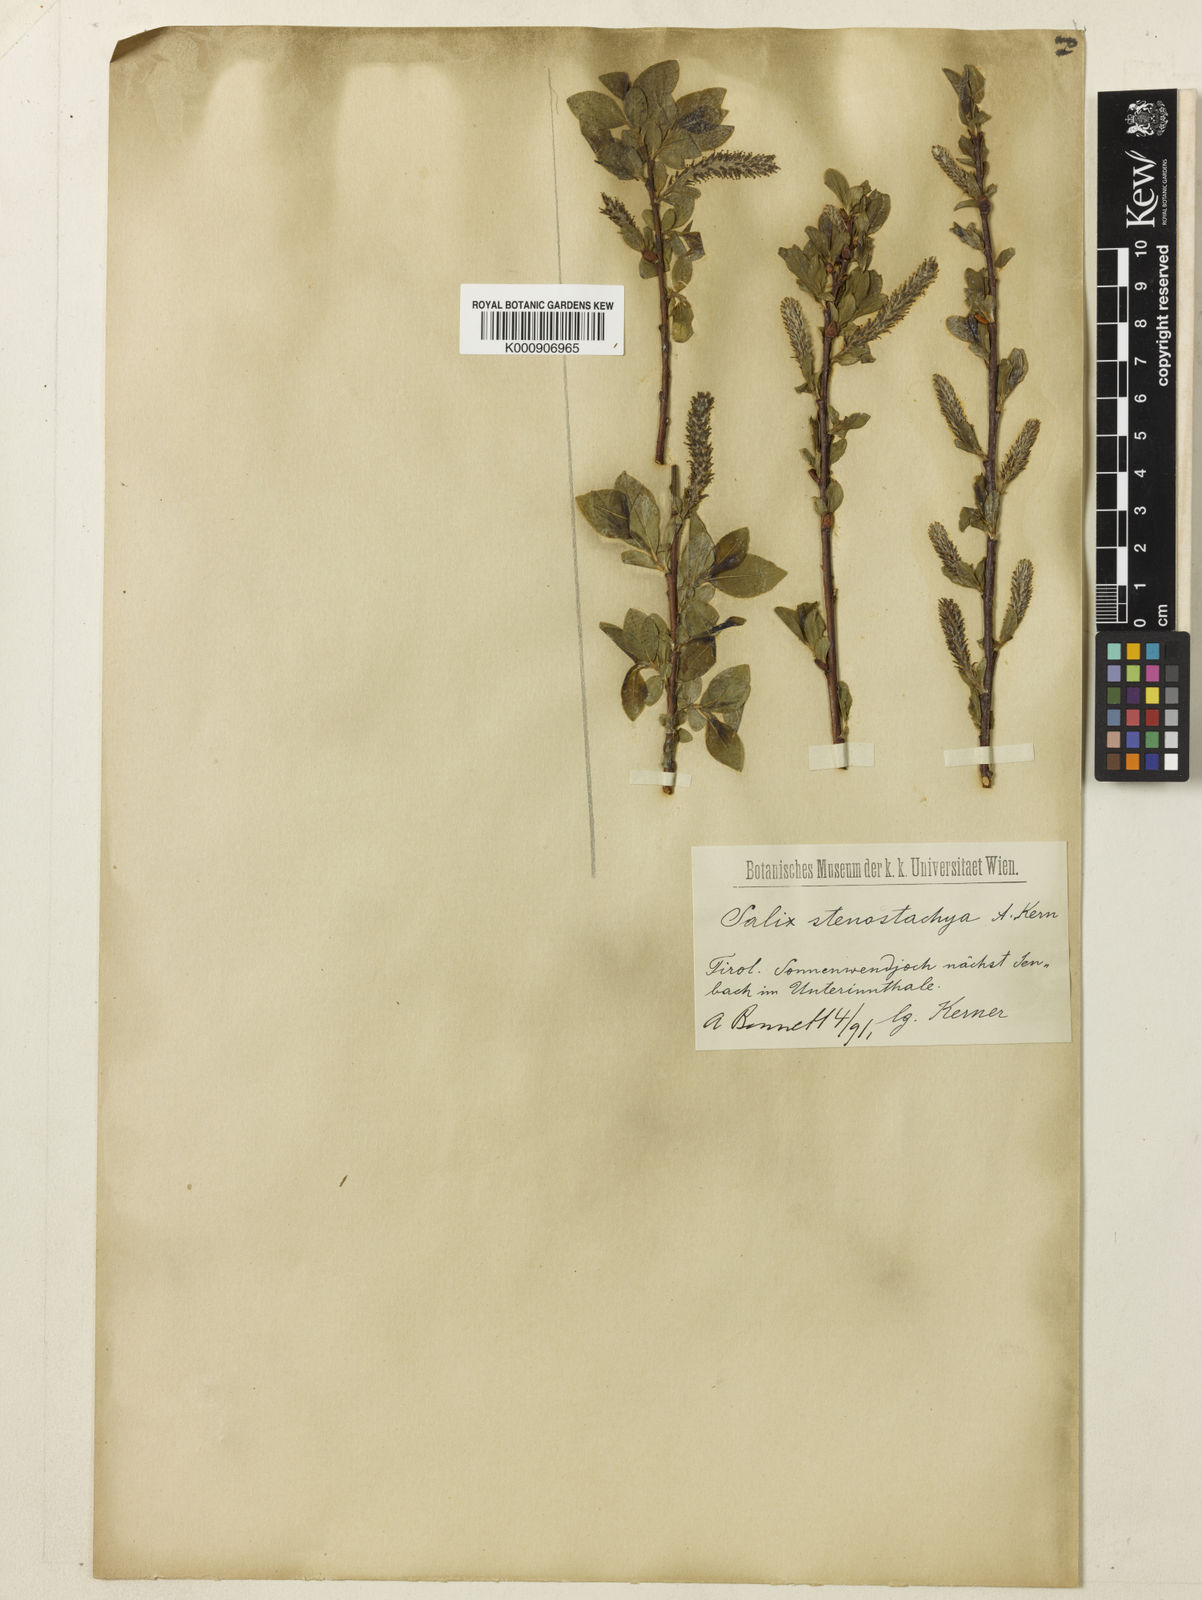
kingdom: Plantae
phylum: Tracheophyta
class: Magnoliopsida
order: Malpighiales
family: Salicaceae
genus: Salix
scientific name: Salix glabra
